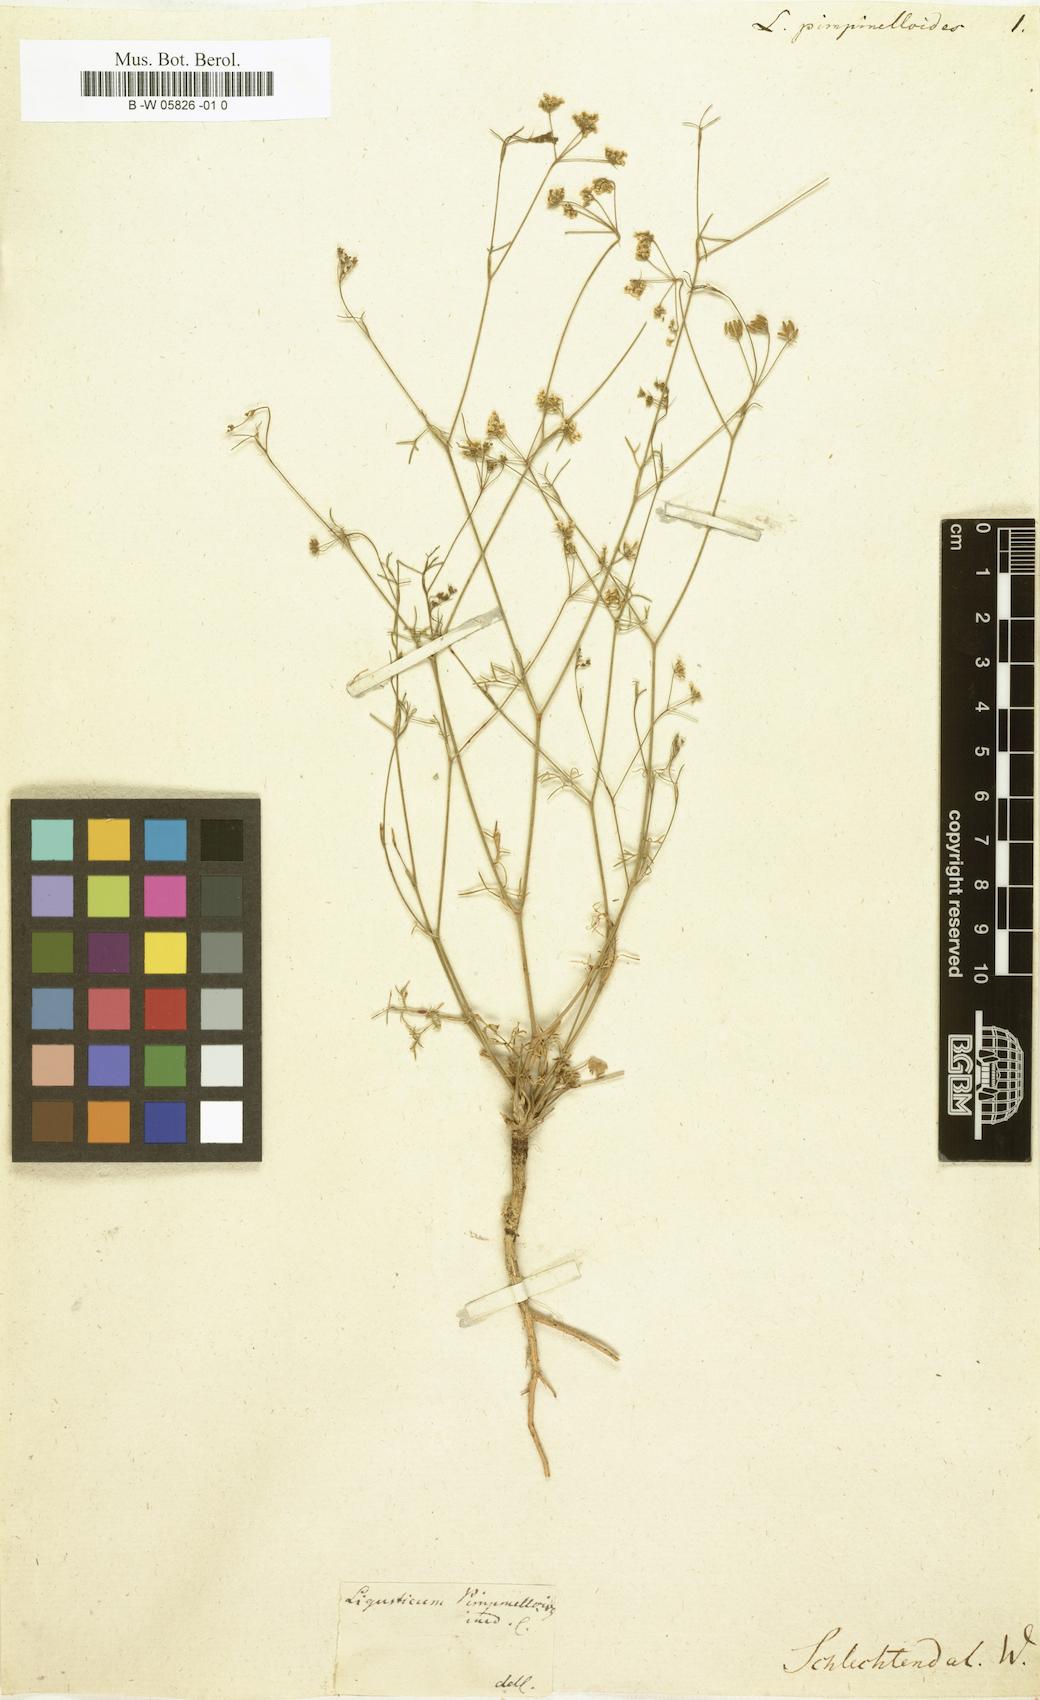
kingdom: Plantae
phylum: Tracheophyta
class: Magnoliopsida
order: Apiales
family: Apiaceae
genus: Ligusticum
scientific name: Ligusticum
